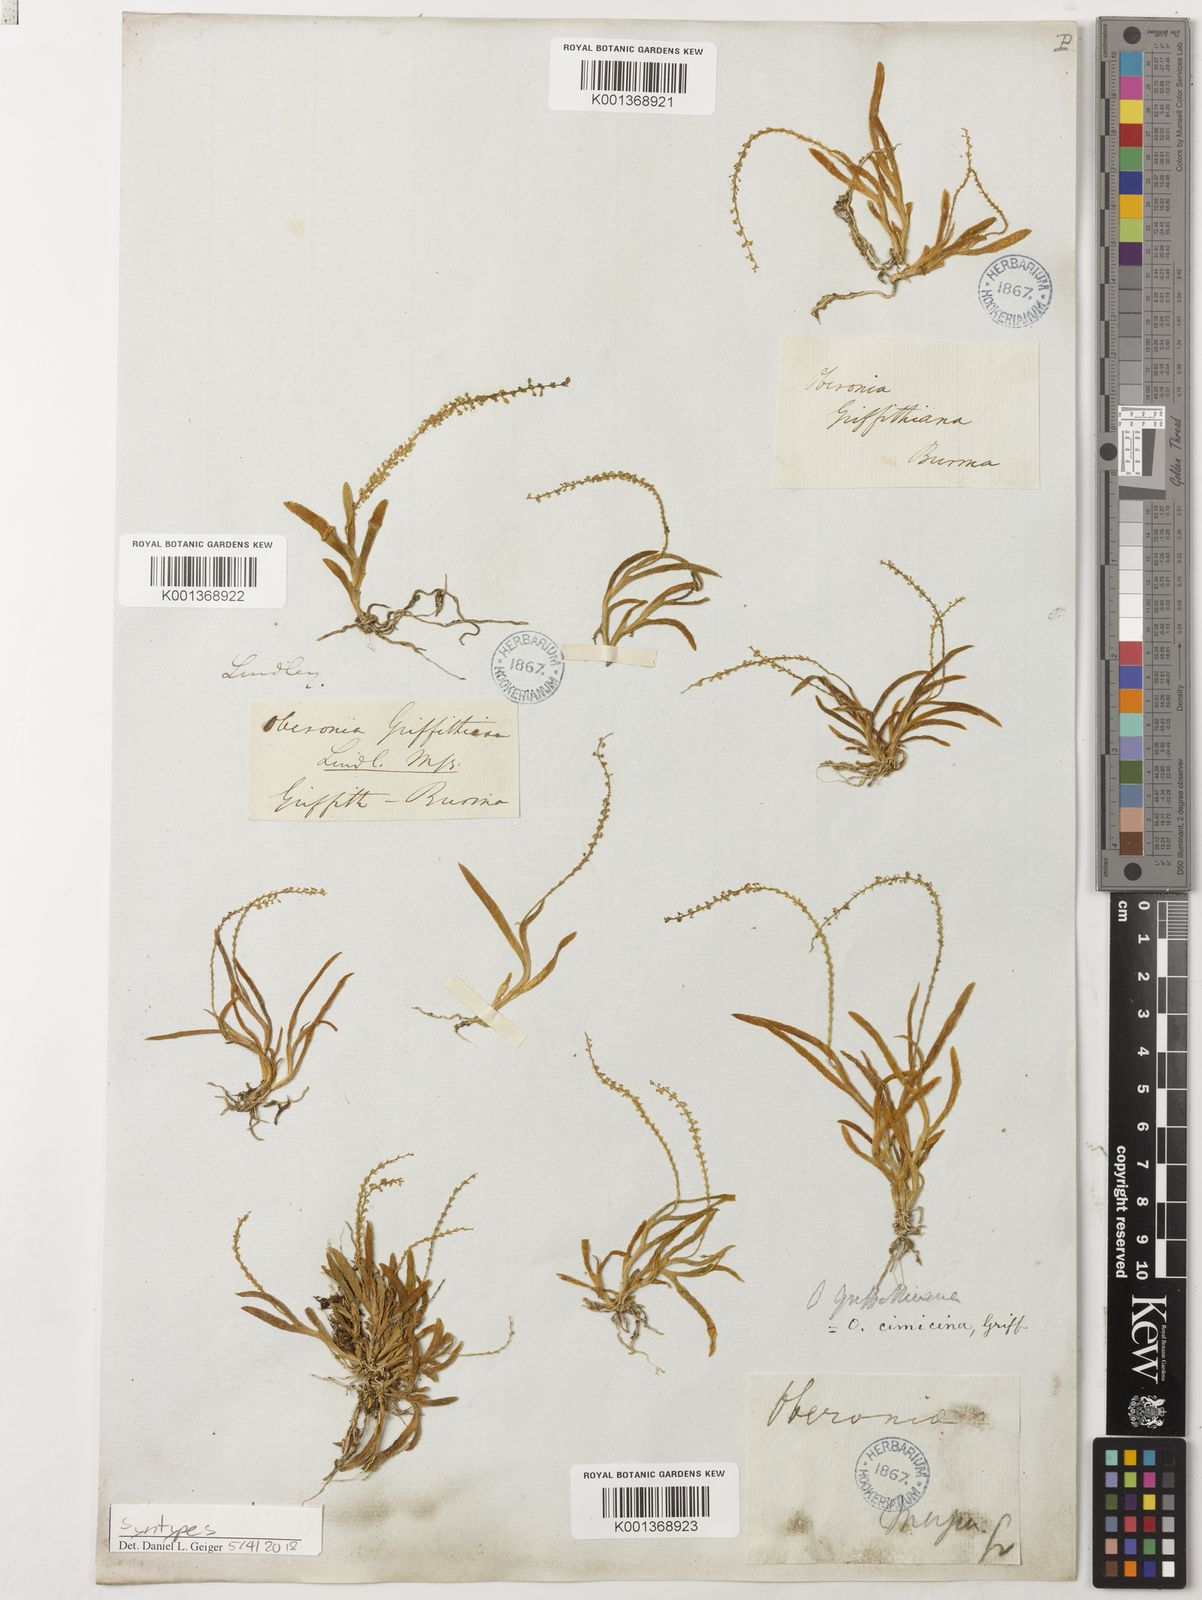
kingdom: Plantae
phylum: Tracheophyta
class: Liliopsida
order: Asparagales
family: Orchidaceae
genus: Oberonia
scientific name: Oberonia griffithiana
